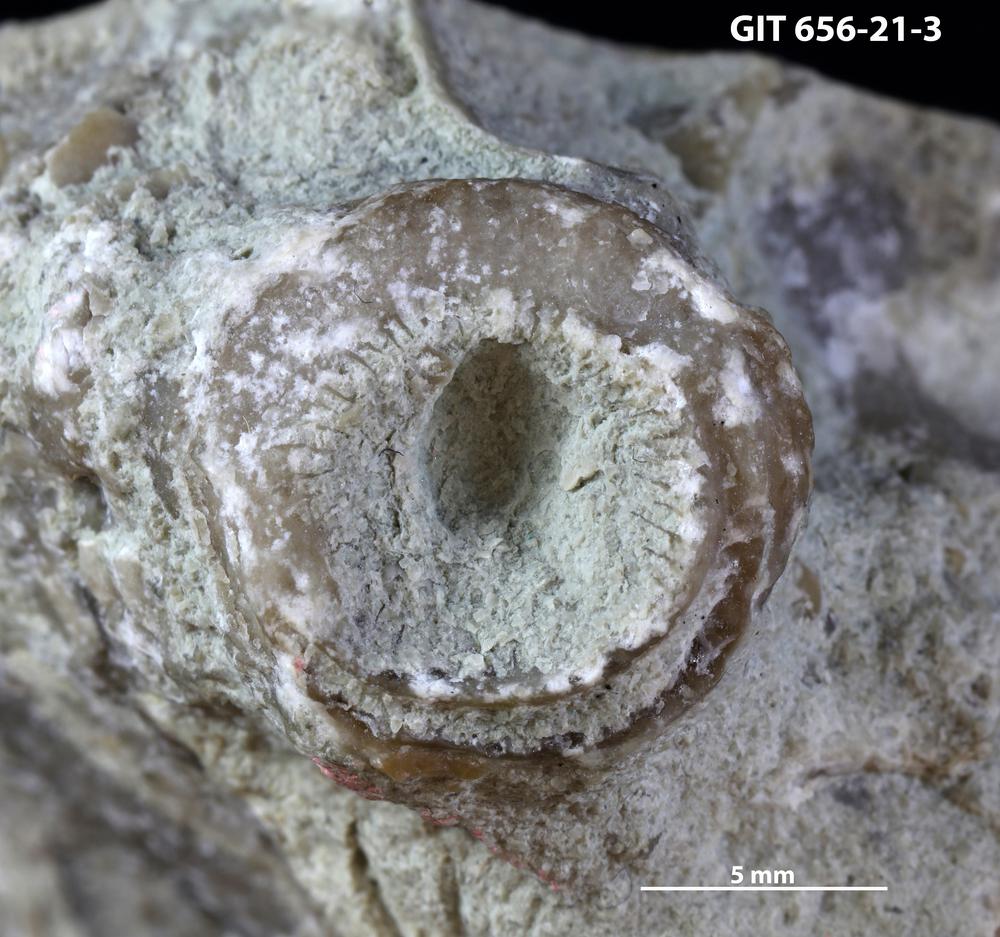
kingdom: Animalia
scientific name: Animalia
